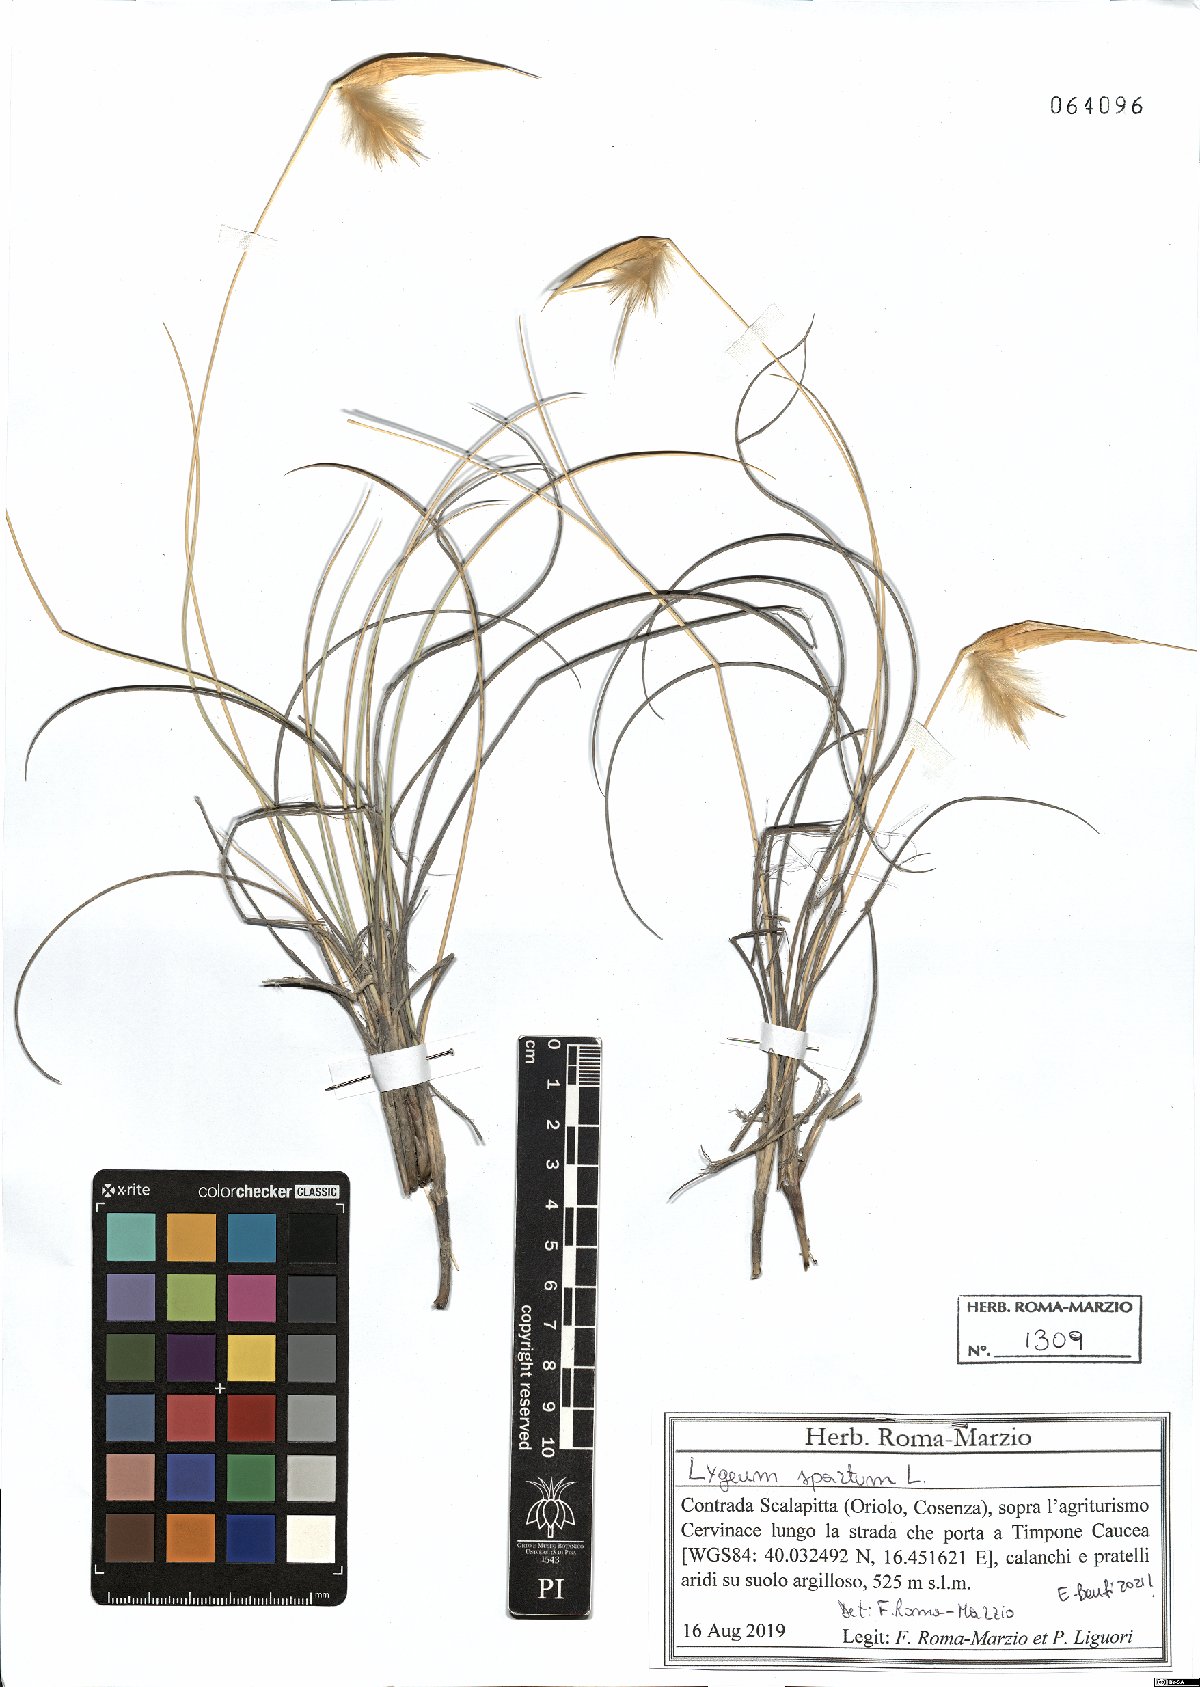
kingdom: Plantae
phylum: Tracheophyta
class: Liliopsida
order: Poales
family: Poaceae
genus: Lygeum
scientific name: Lygeum spartum
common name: Albardine
